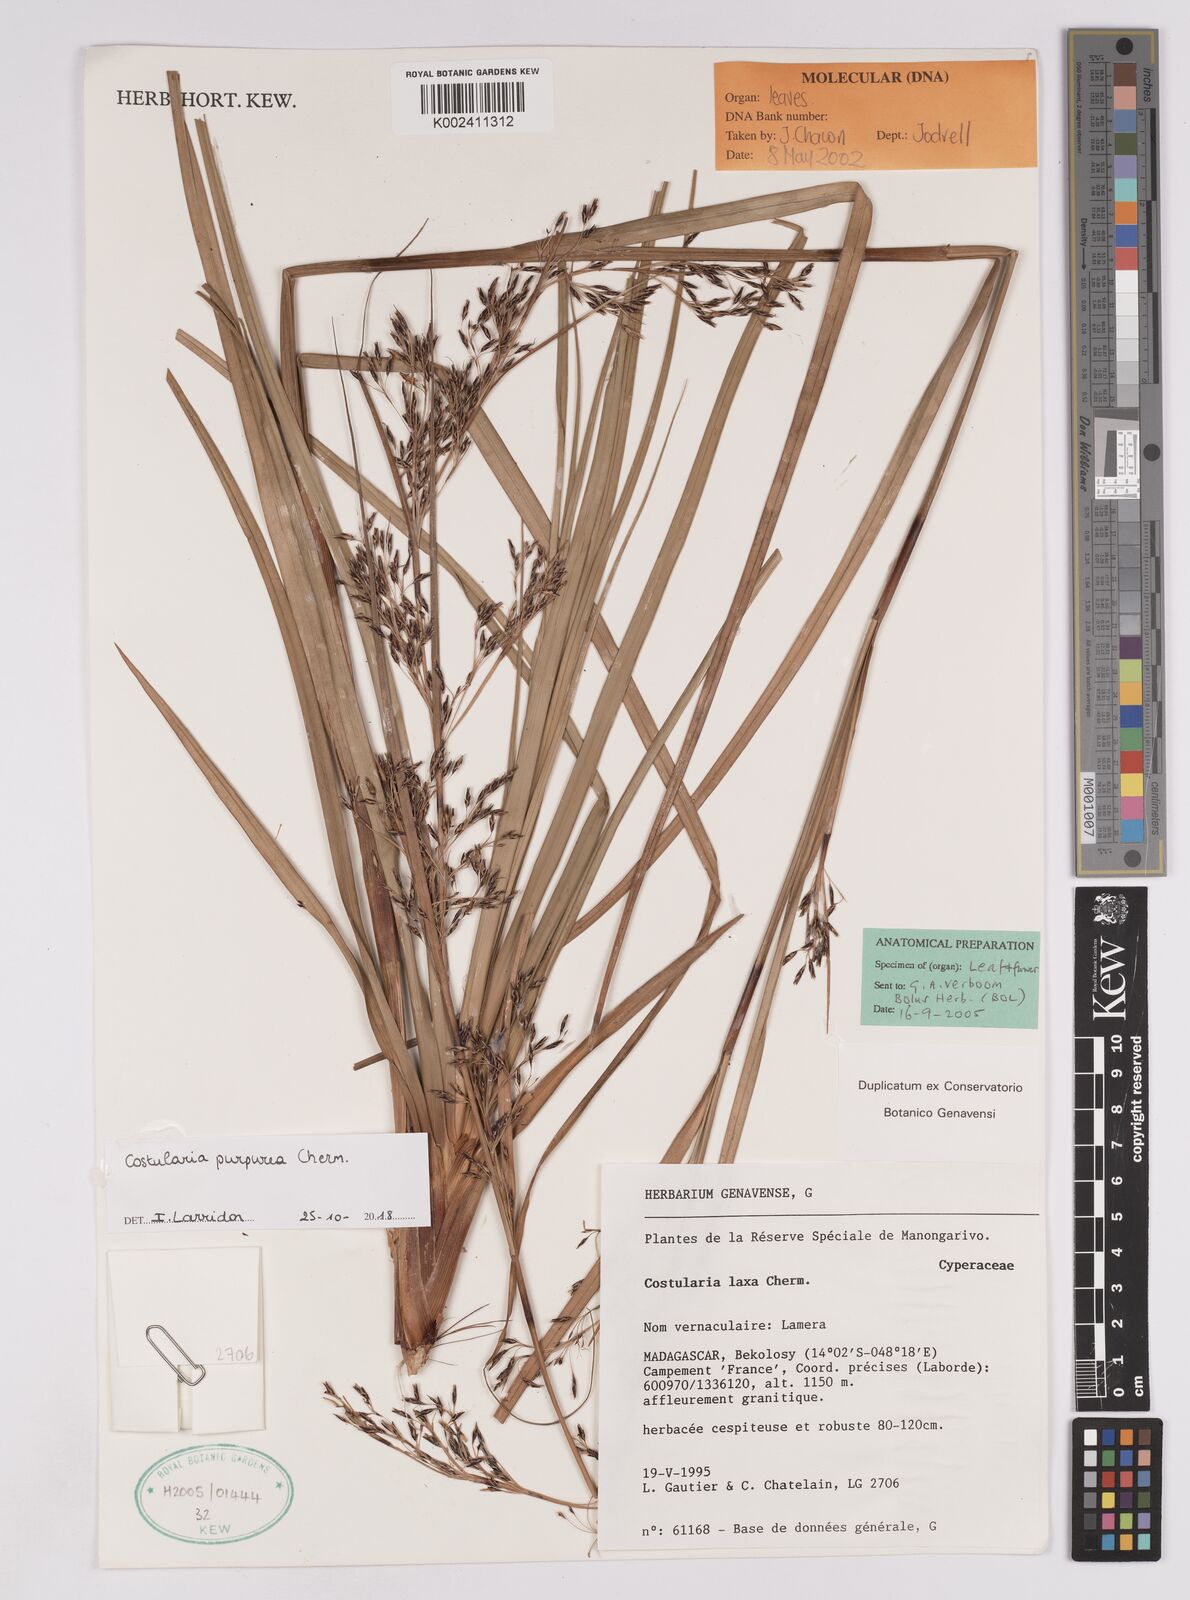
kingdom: Plantae
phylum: Tracheophyta
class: Liliopsida
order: Poales
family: Cyperaceae
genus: Costularia
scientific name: Costularia purpurea
